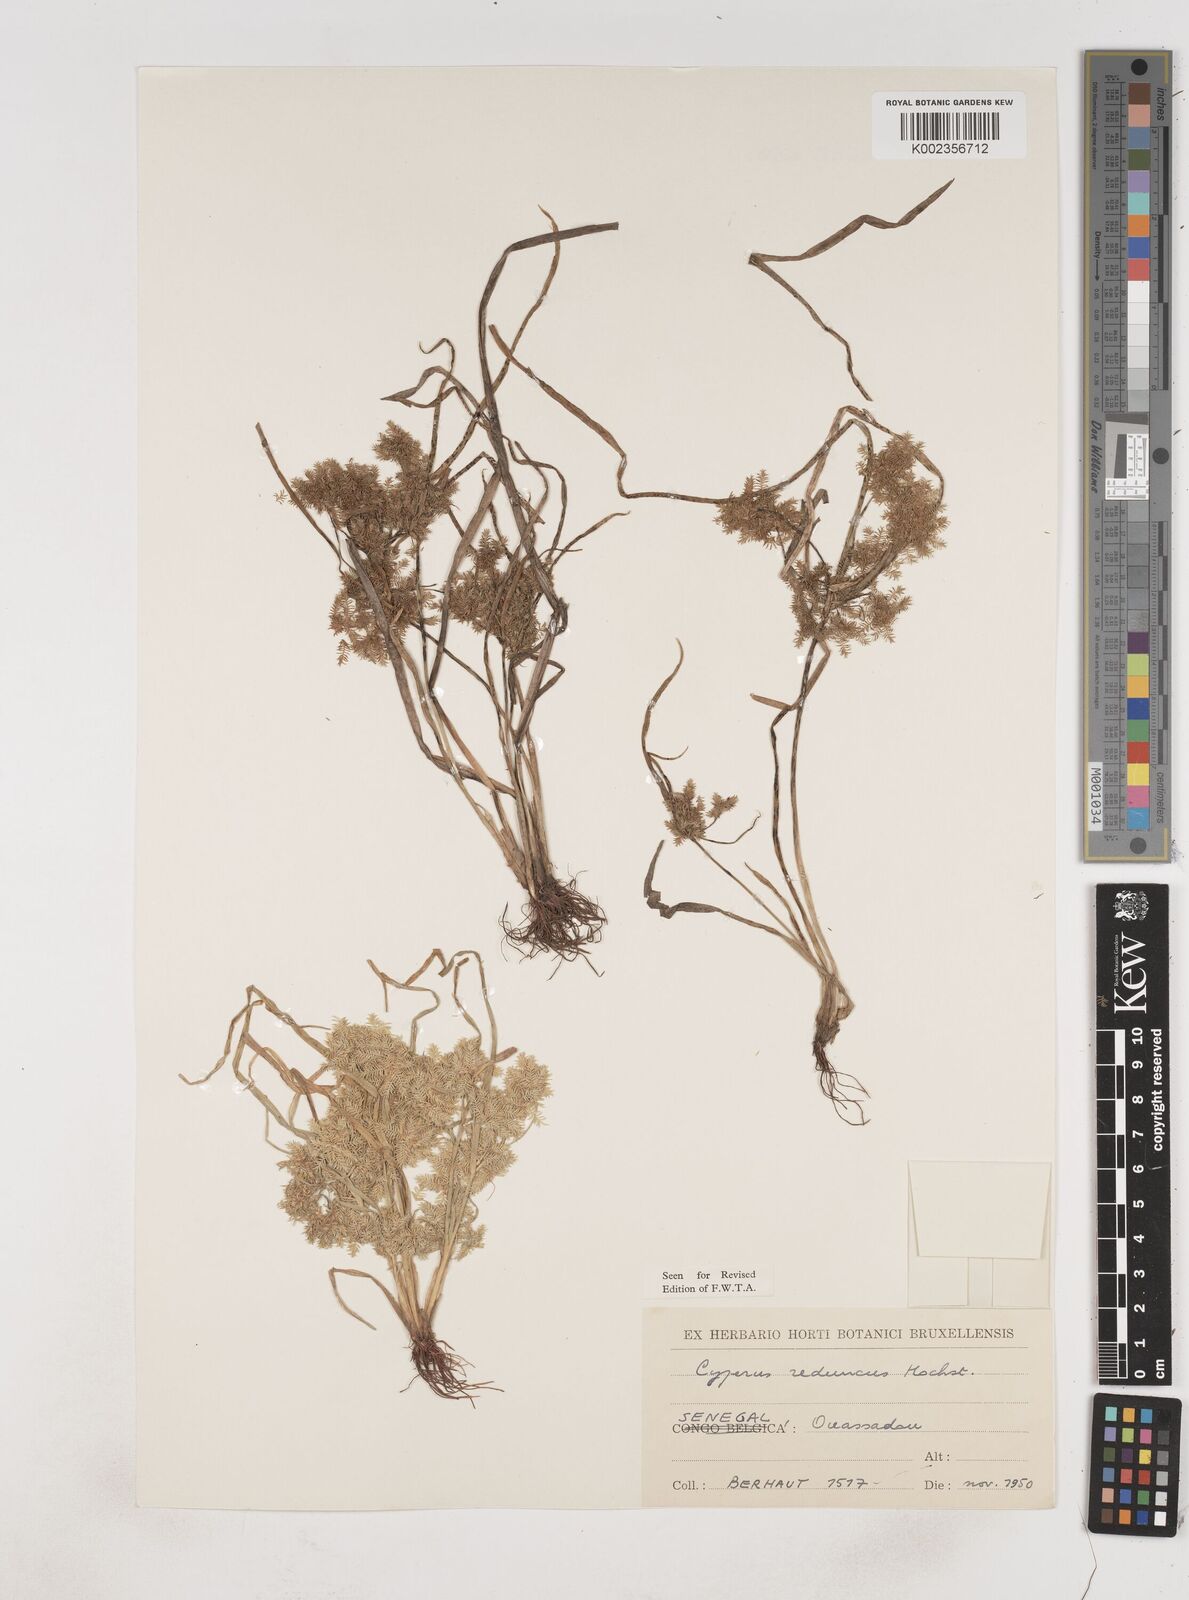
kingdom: Plantae
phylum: Tracheophyta
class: Liliopsida
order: Poales
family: Cyperaceae
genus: Cyperus
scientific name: Cyperus reduncus
